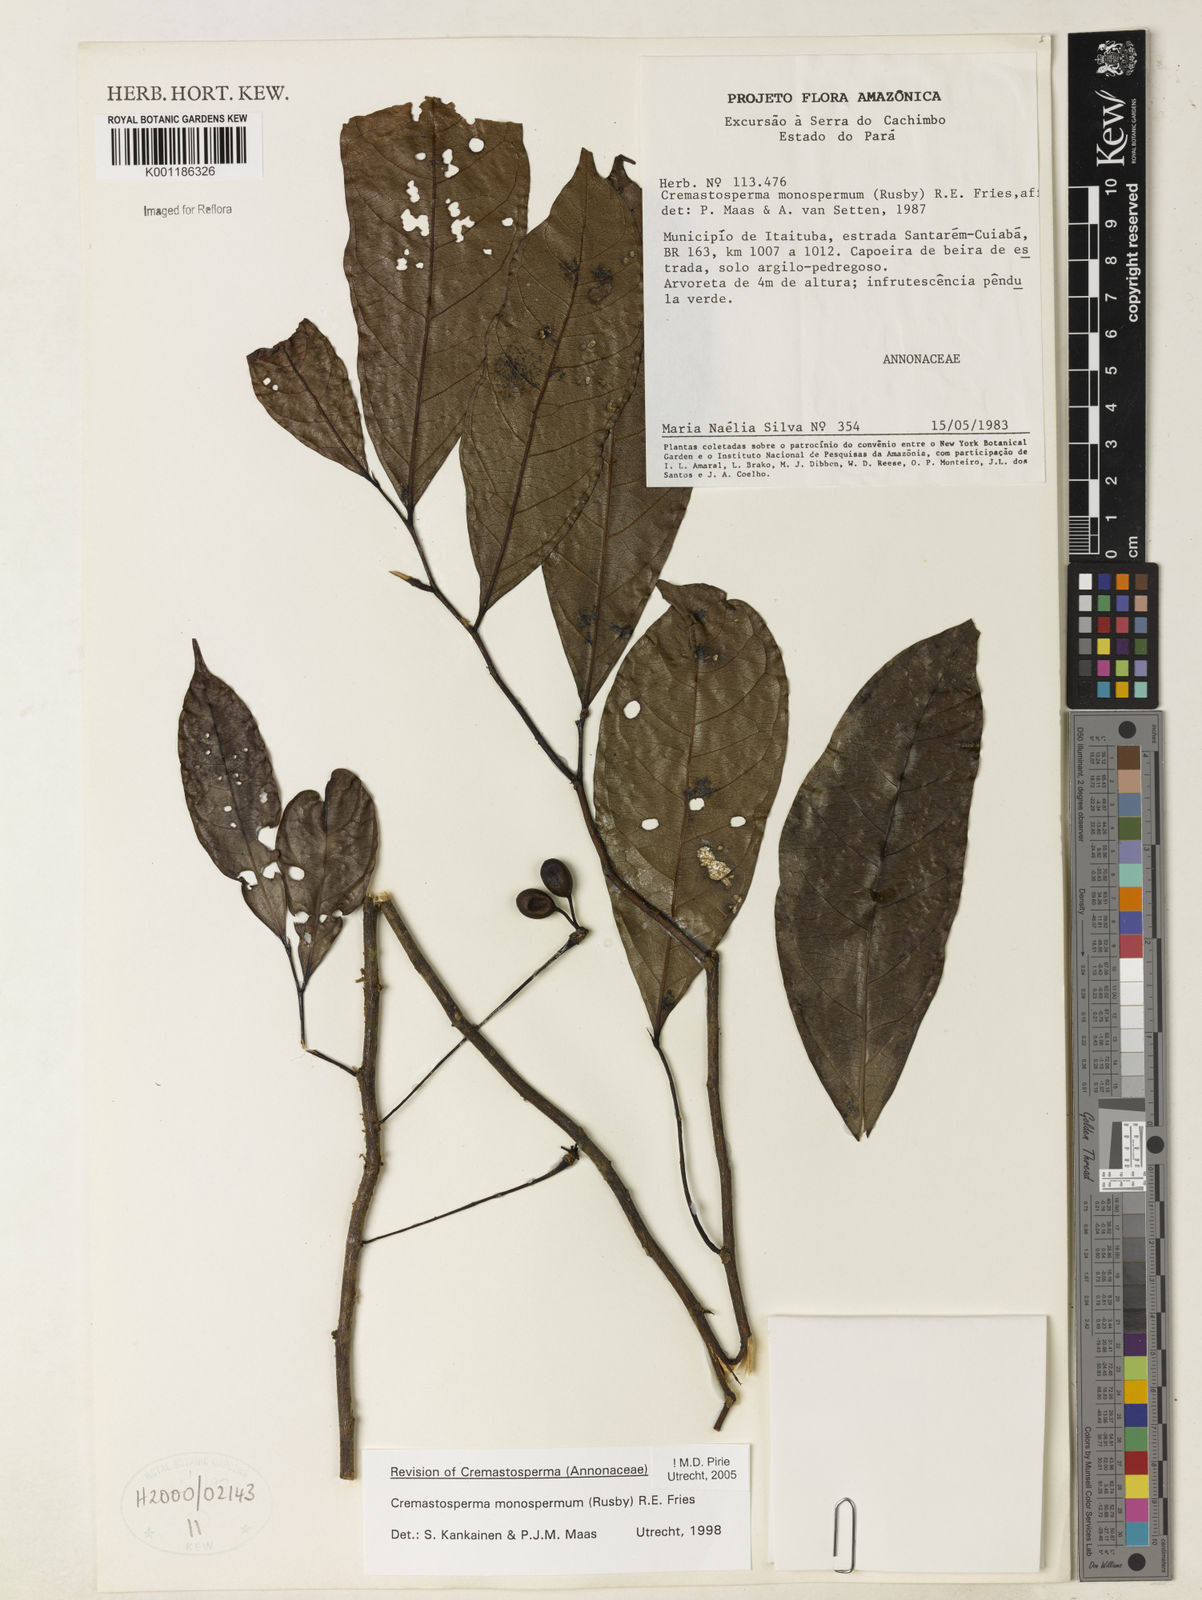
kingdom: Plantae
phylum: Tracheophyta
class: Magnoliopsida
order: Magnoliales
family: Annonaceae
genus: Cremastosperma
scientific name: Cremastosperma monospermum
